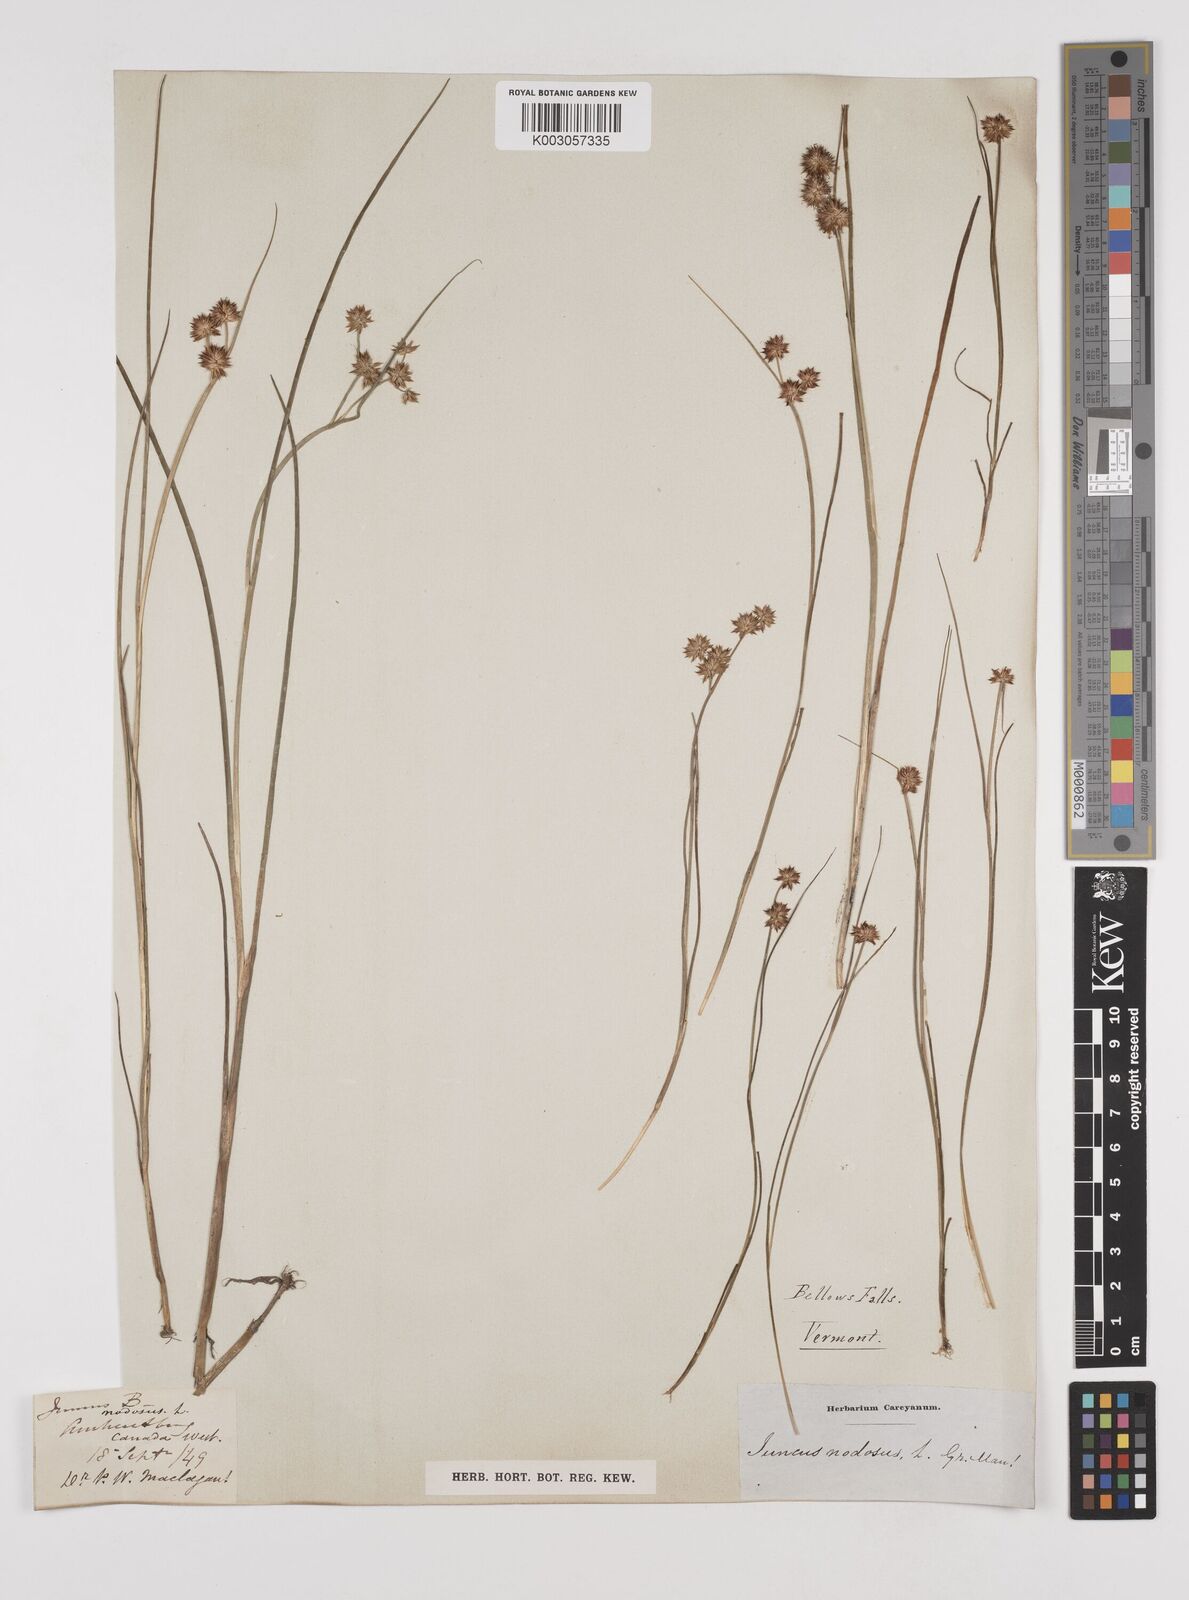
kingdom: Plantae
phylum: Tracheophyta
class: Liliopsida
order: Poales
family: Juncaceae
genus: Juncus
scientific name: Juncus nodosus
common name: Knotted rush
